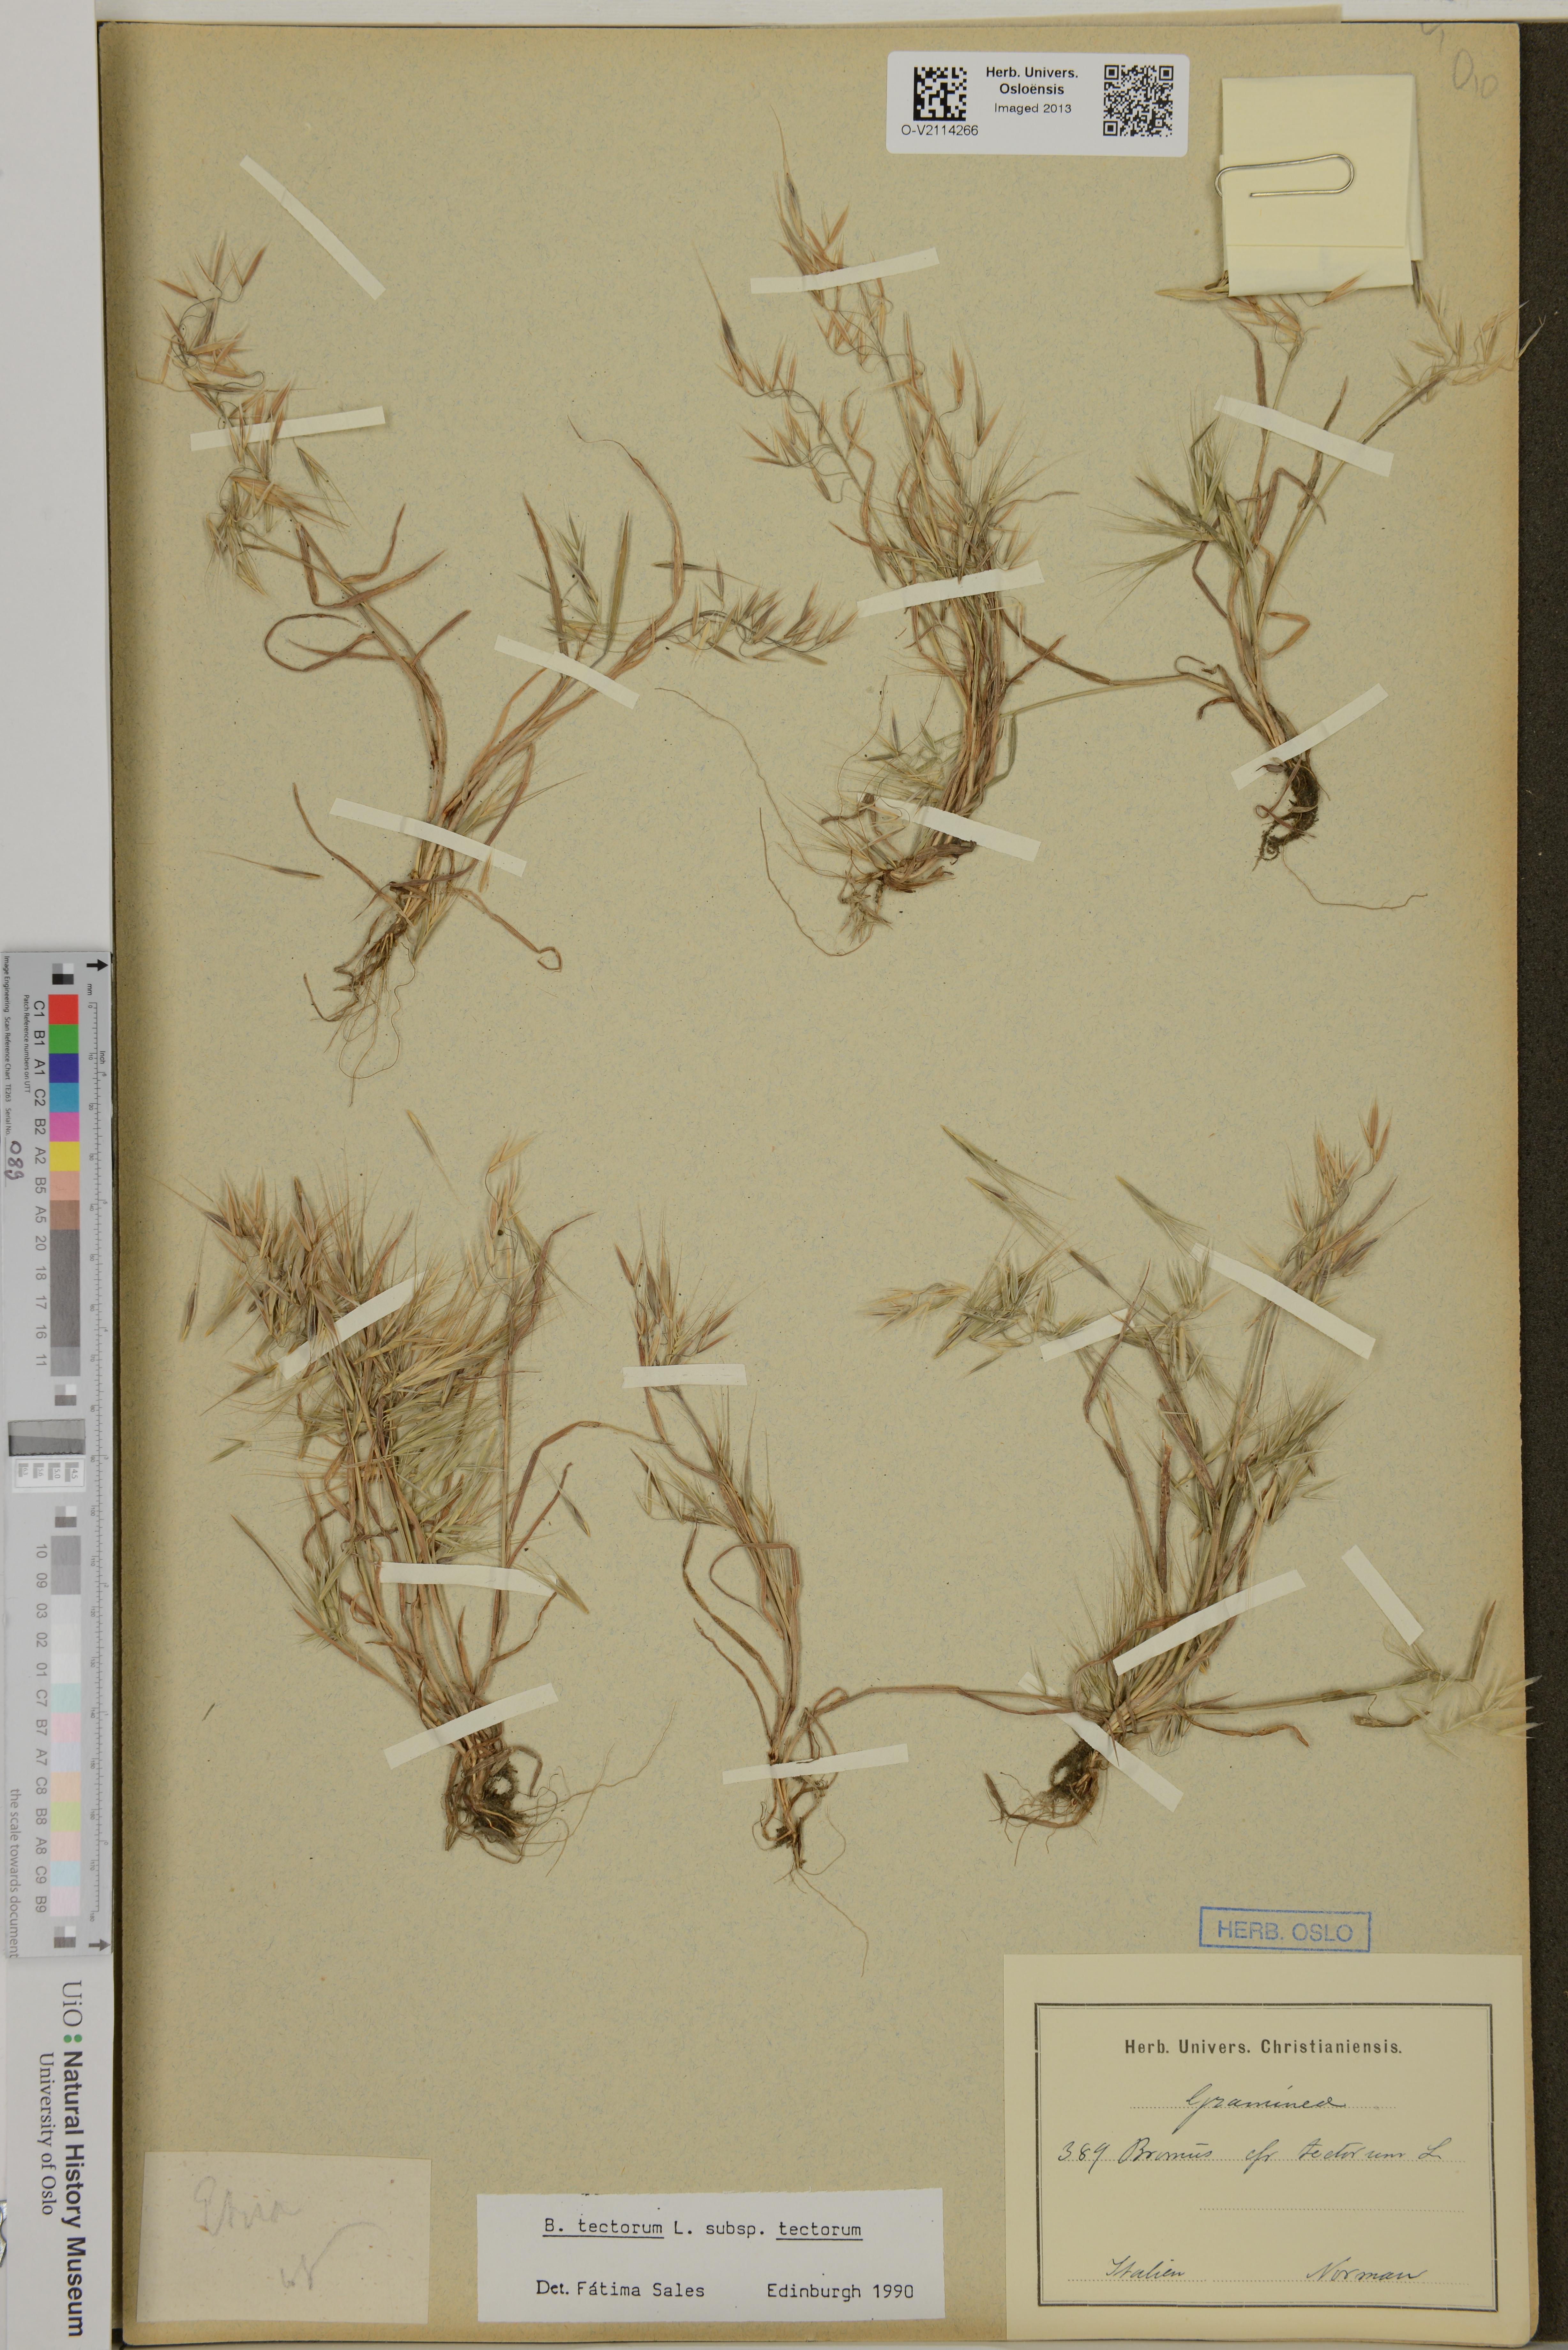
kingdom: Plantae
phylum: Tracheophyta
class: Liliopsida
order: Poales
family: Poaceae
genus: Bromus
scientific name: Bromus tectorum
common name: Cheatgrass
